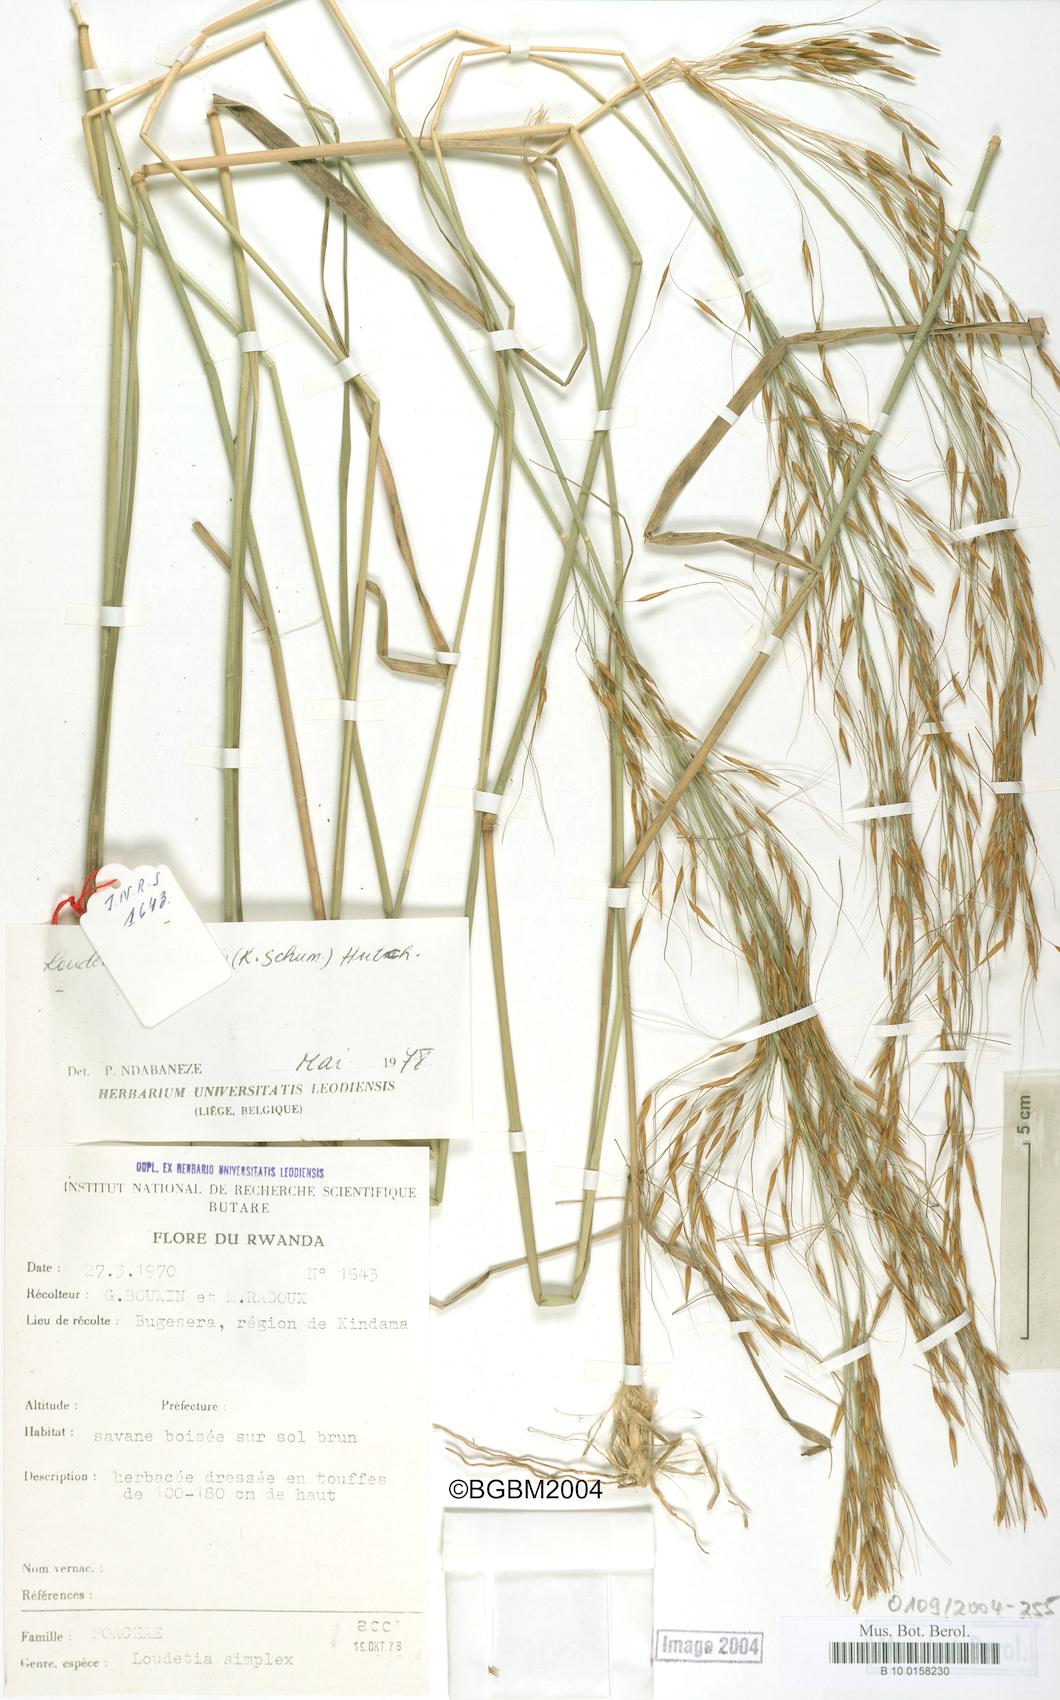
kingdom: Plantae
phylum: Tracheophyta
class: Liliopsida
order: Poales
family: Poaceae
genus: Loudetia
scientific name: Loudetia simplex
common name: Common russet grass
